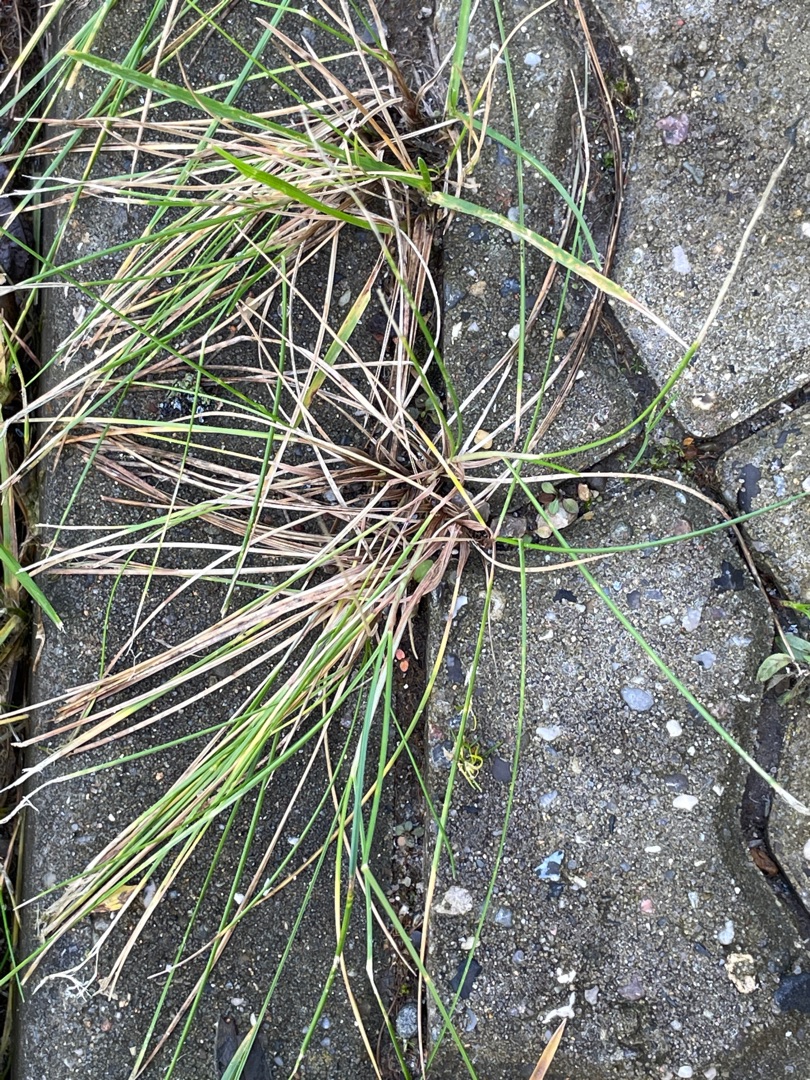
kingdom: Plantae
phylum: Tracheophyta
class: Liliopsida
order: Poales
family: Poaceae
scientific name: Poaceae
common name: Græsfamilien
